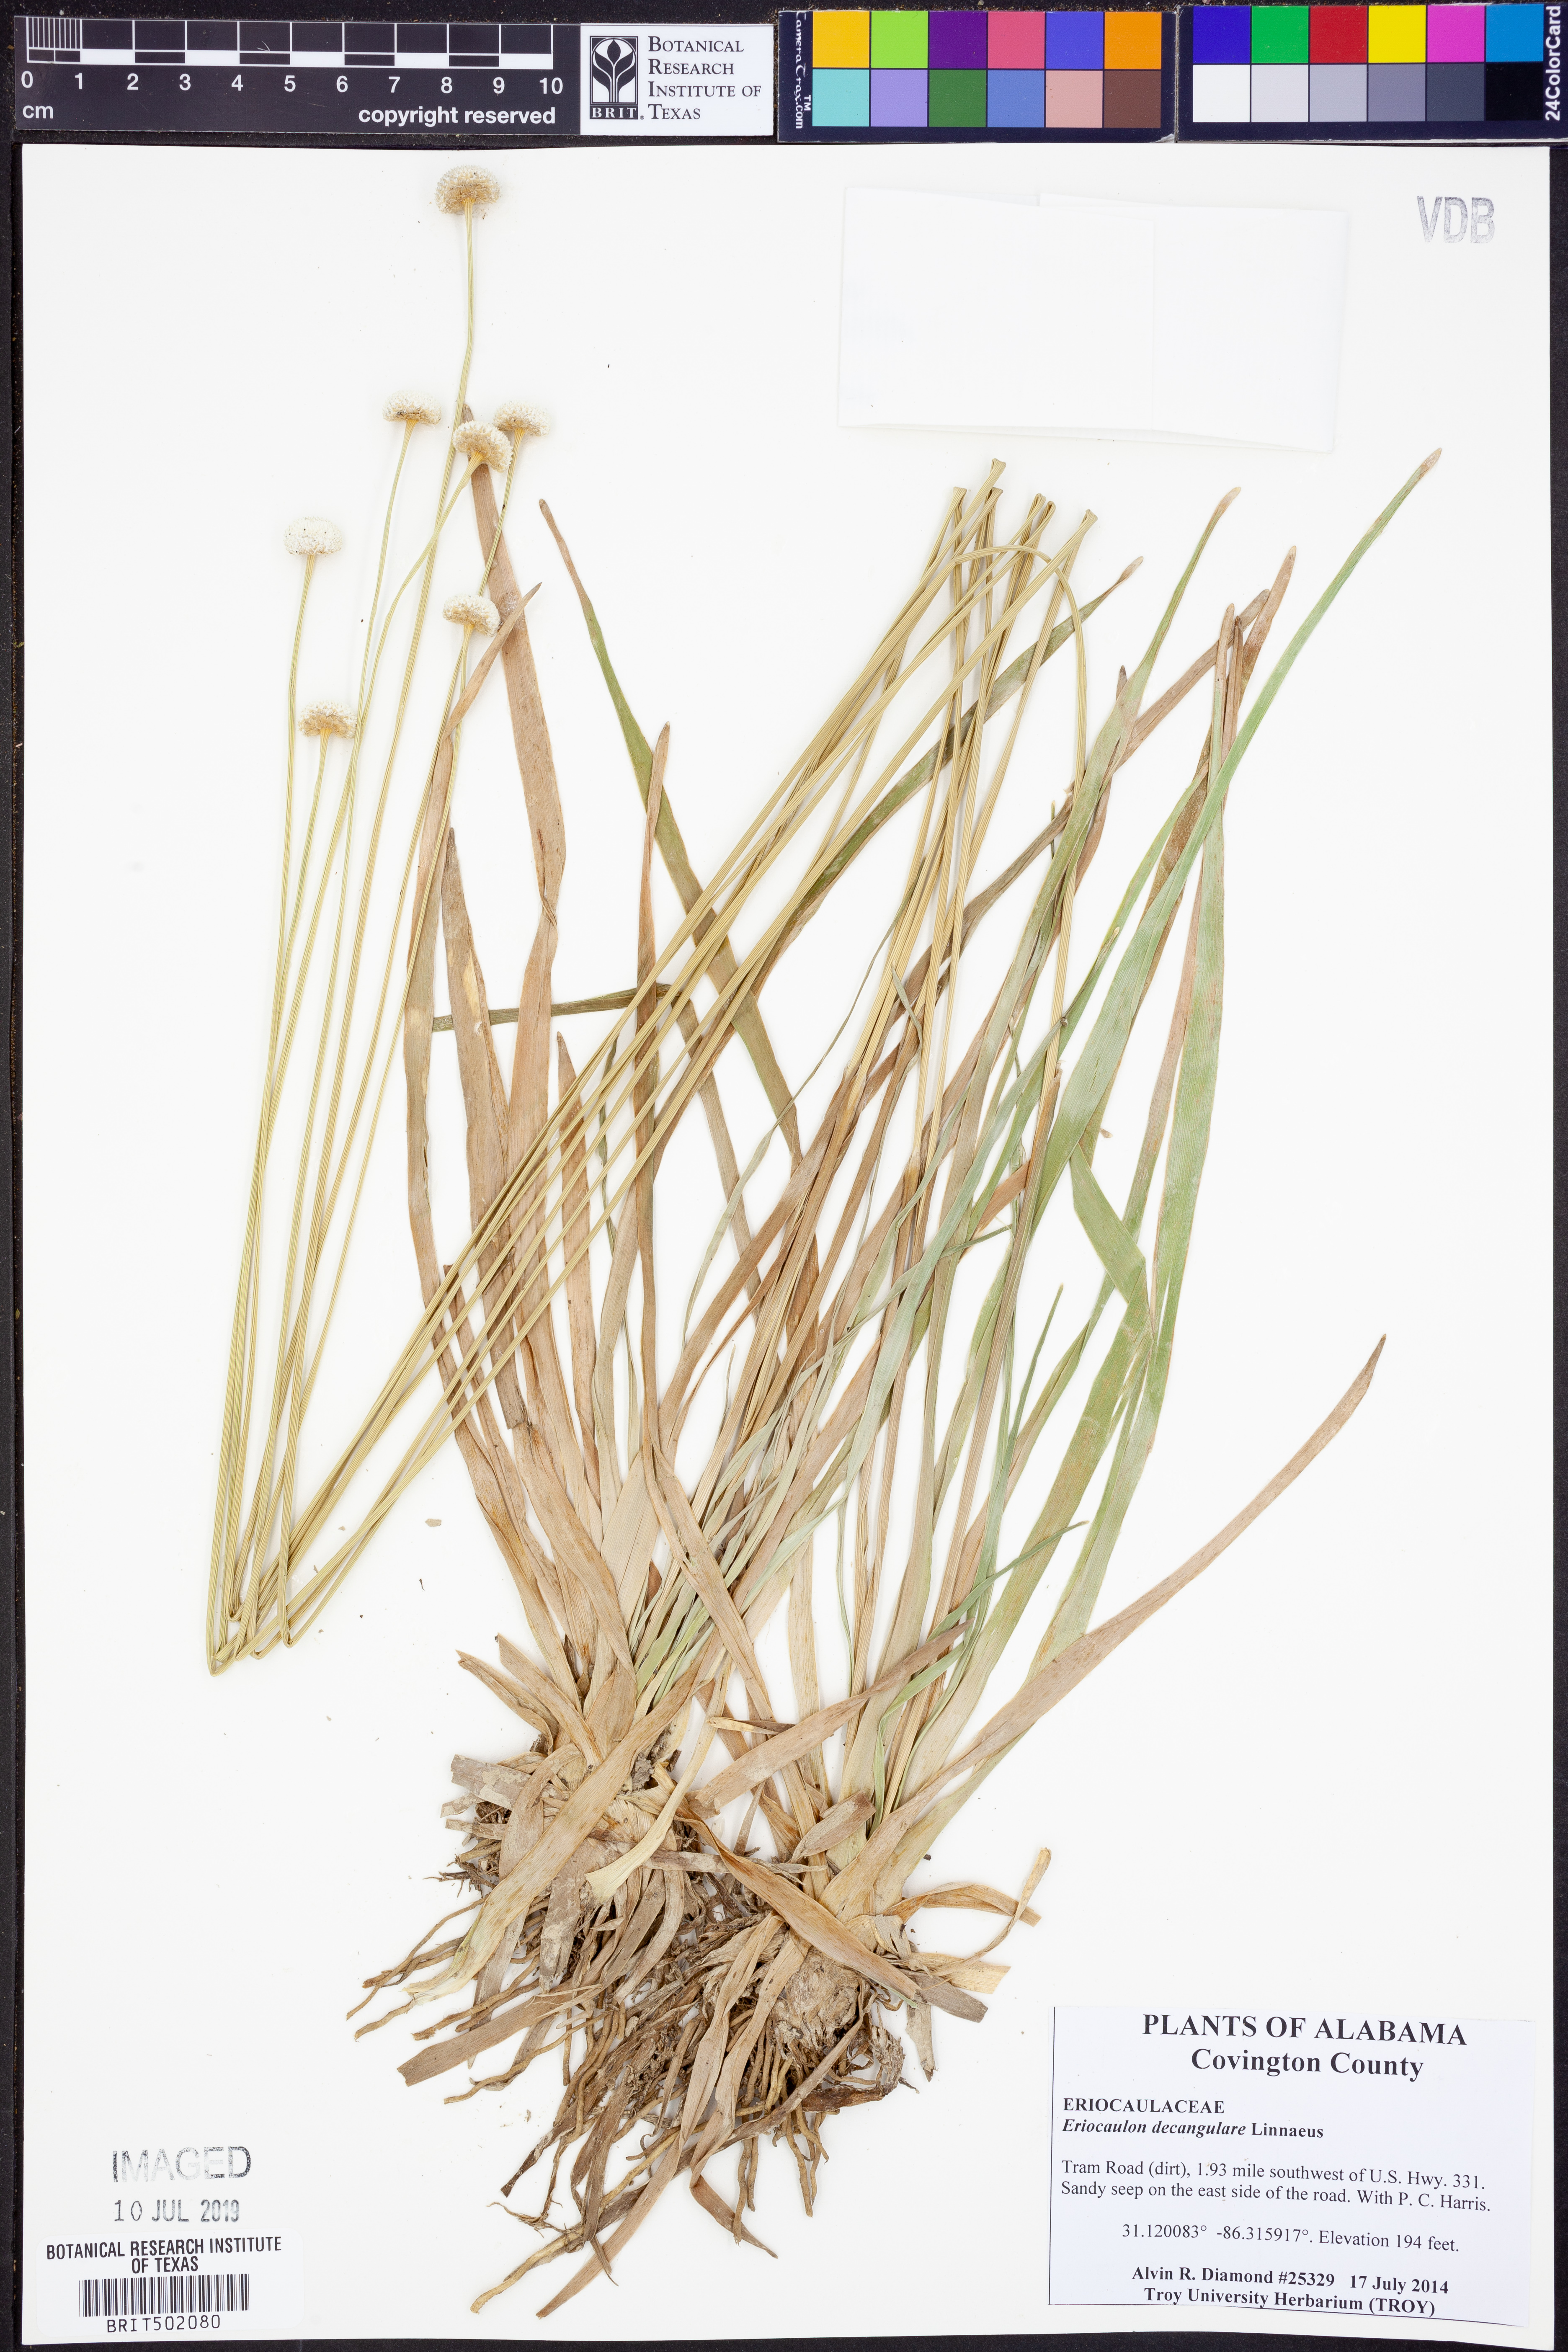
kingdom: Plantae
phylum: Tracheophyta
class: Liliopsida
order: Poales
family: Eriocaulaceae
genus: Eriocaulon
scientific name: Eriocaulon decangulare
